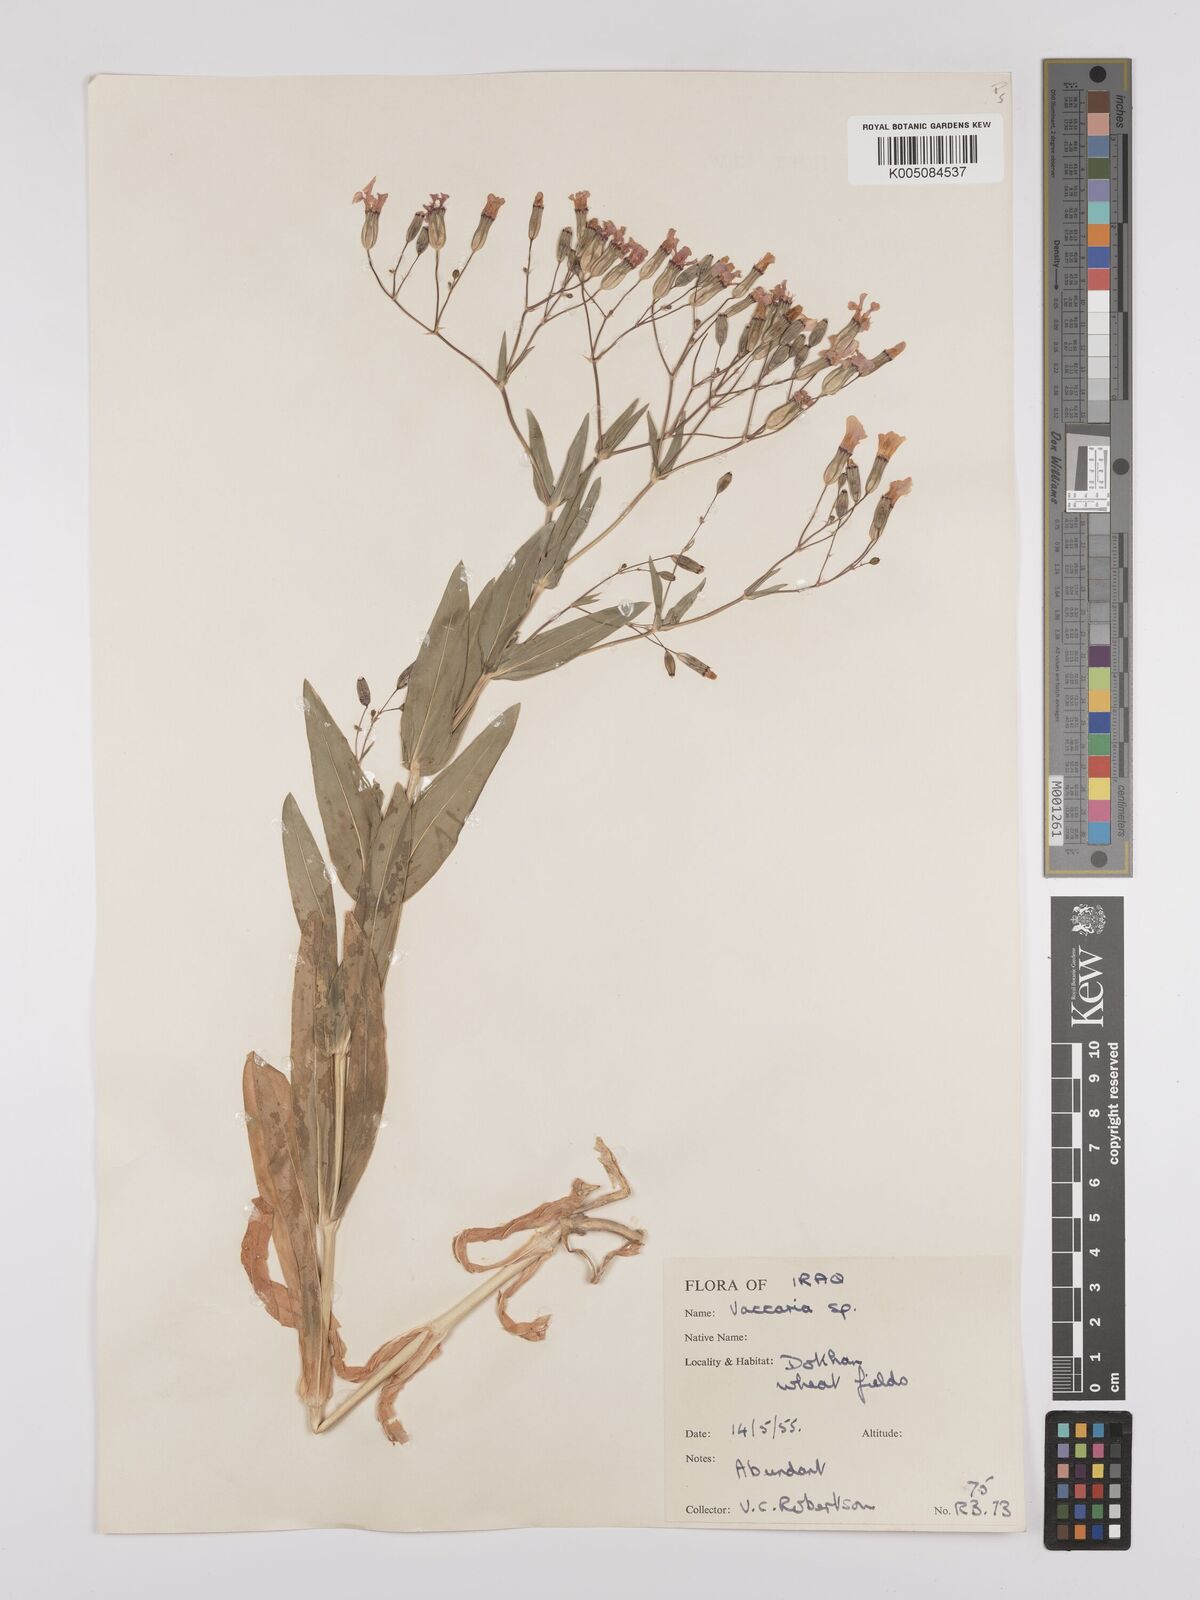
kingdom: Plantae
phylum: Tracheophyta
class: Magnoliopsida
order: Caryophyllales
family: Caryophyllaceae
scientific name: Caryophyllaceae
